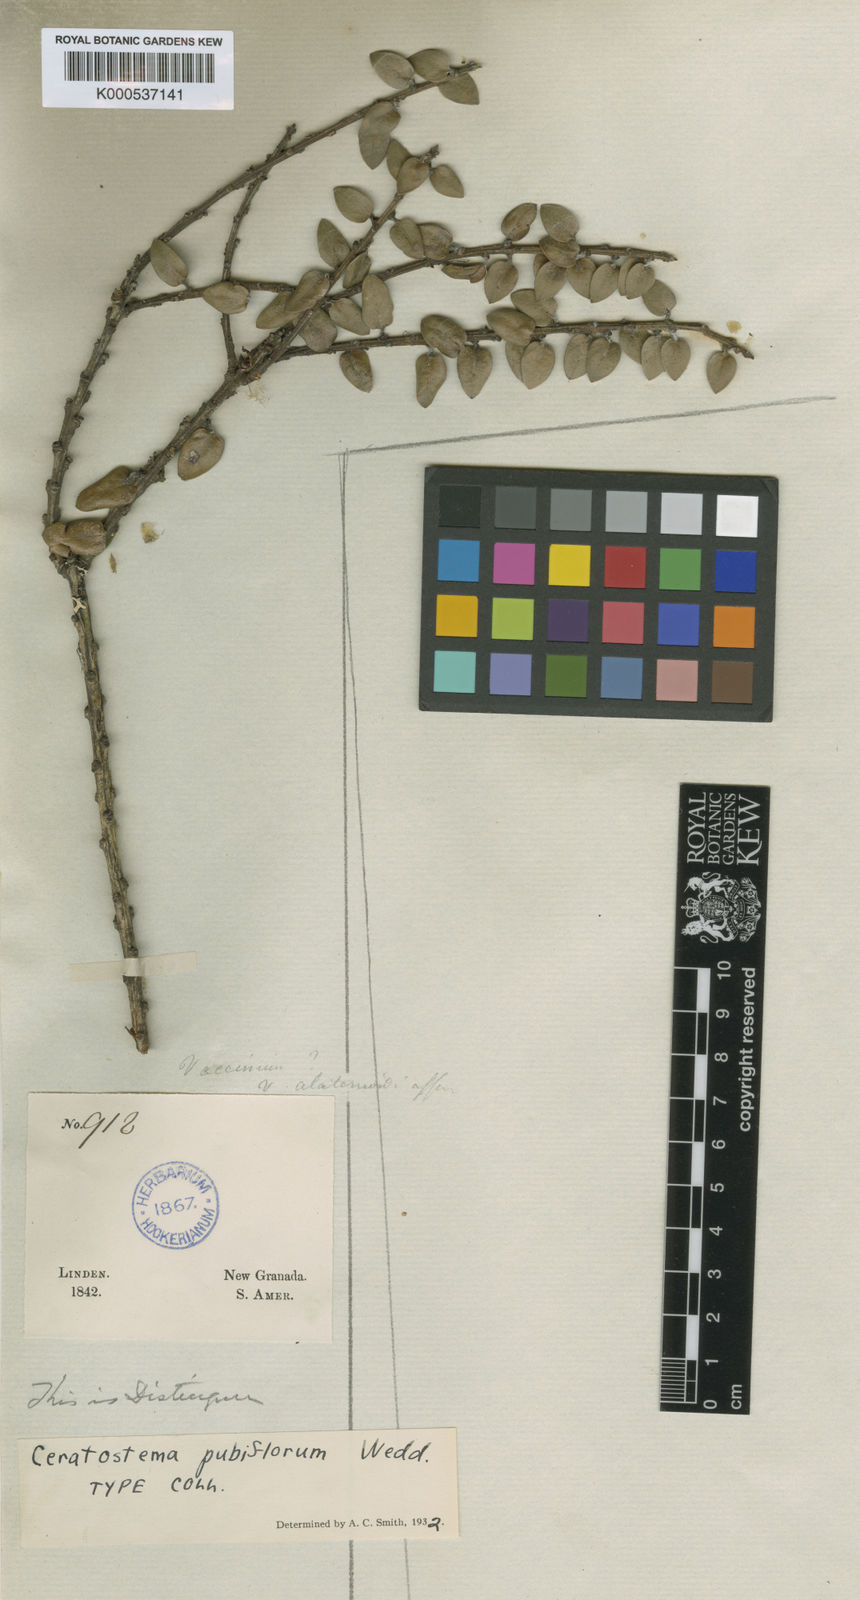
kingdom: Plantae
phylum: Tracheophyta
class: Magnoliopsida
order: Ericales
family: Ericaceae
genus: Plutarchia
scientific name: Plutarchia pubiflora
